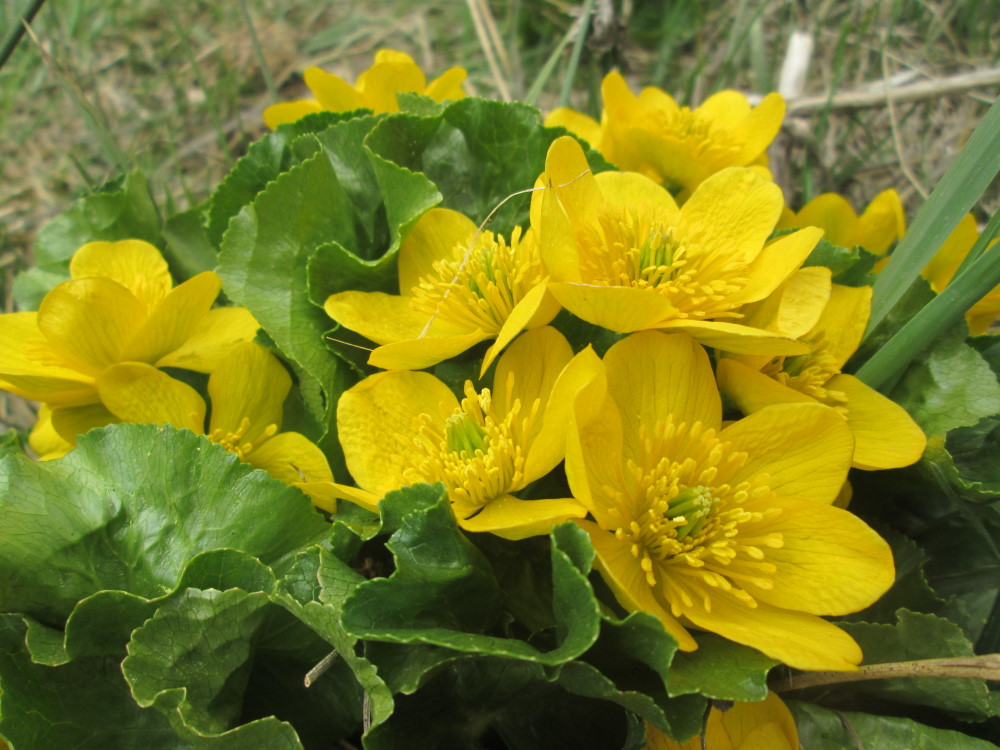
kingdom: Plantae
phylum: Tracheophyta
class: Magnoliopsida
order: Ranunculales
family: Ranunculaceae
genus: Caltha
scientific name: Caltha palustris
